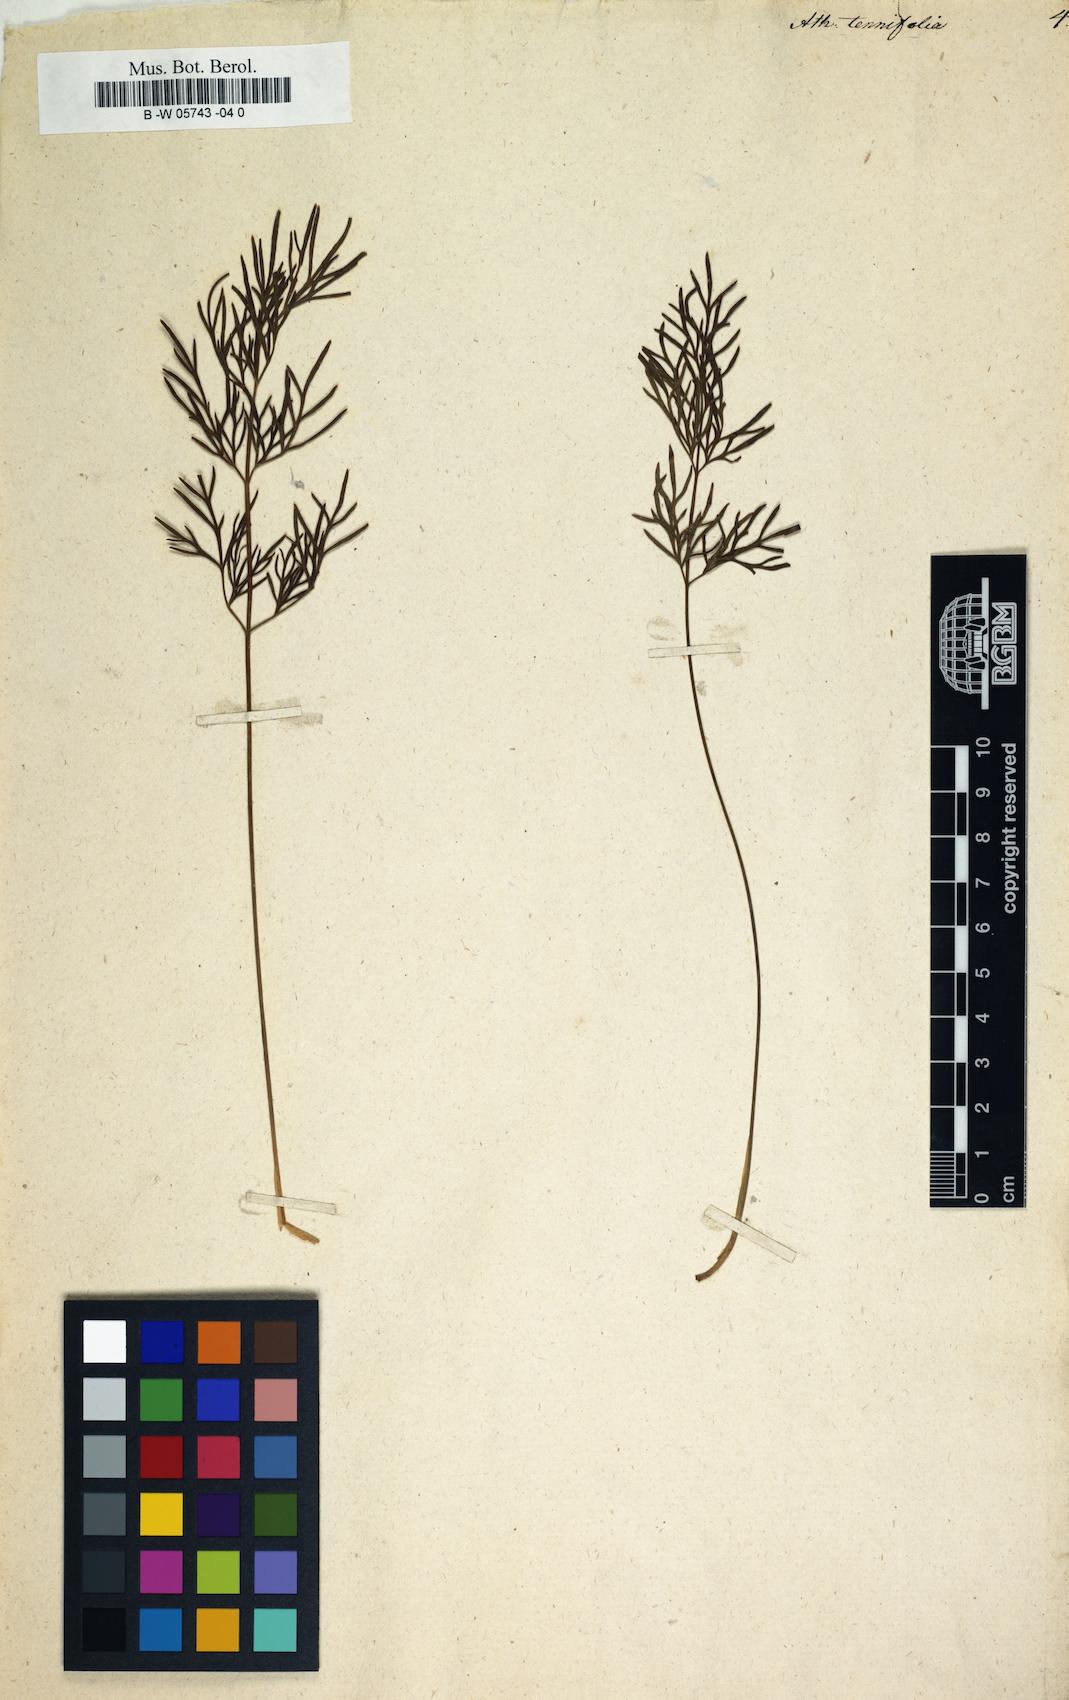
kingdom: Plantae
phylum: Tracheophyta
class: Magnoliopsida
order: Apiales
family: Apiaceae
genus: Ostericum
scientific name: Ostericum tenuifolium
